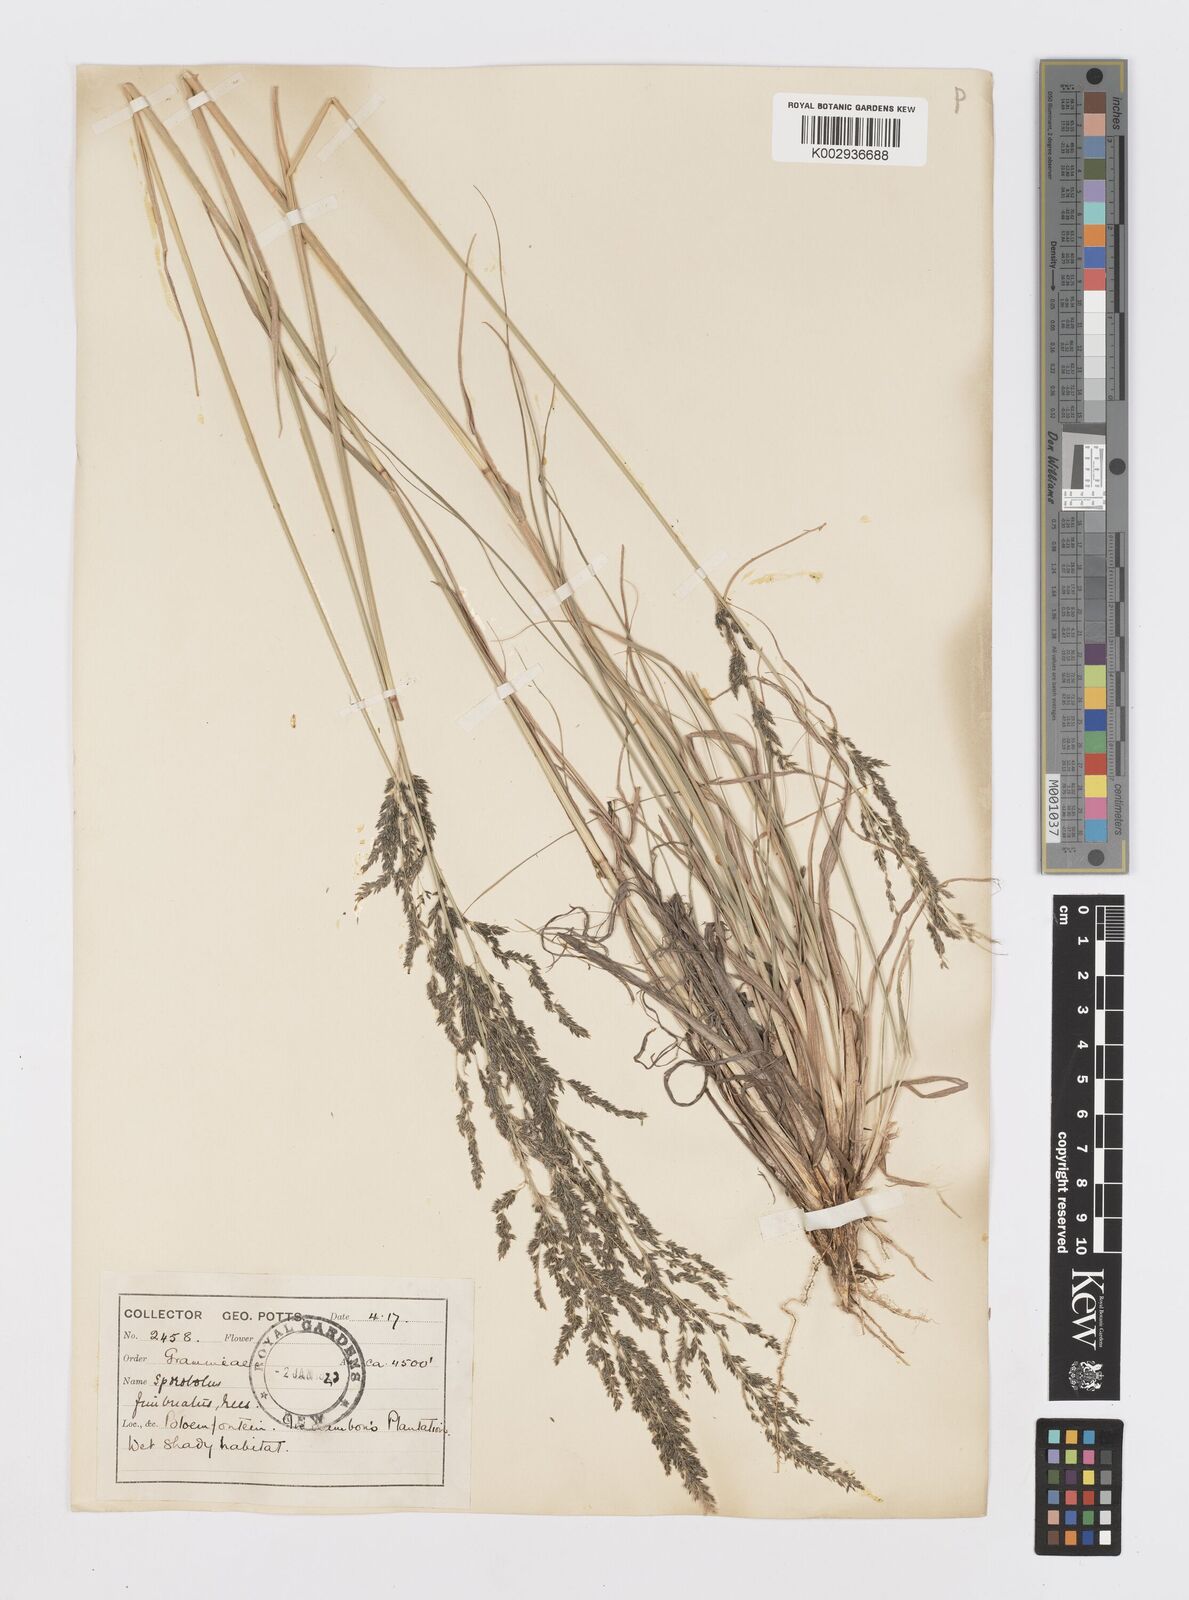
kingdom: Plantae
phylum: Tracheophyta
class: Liliopsida
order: Poales
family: Poaceae
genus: Sporobolus
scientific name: Sporobolus fimbriatus
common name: Fringed dropseed
